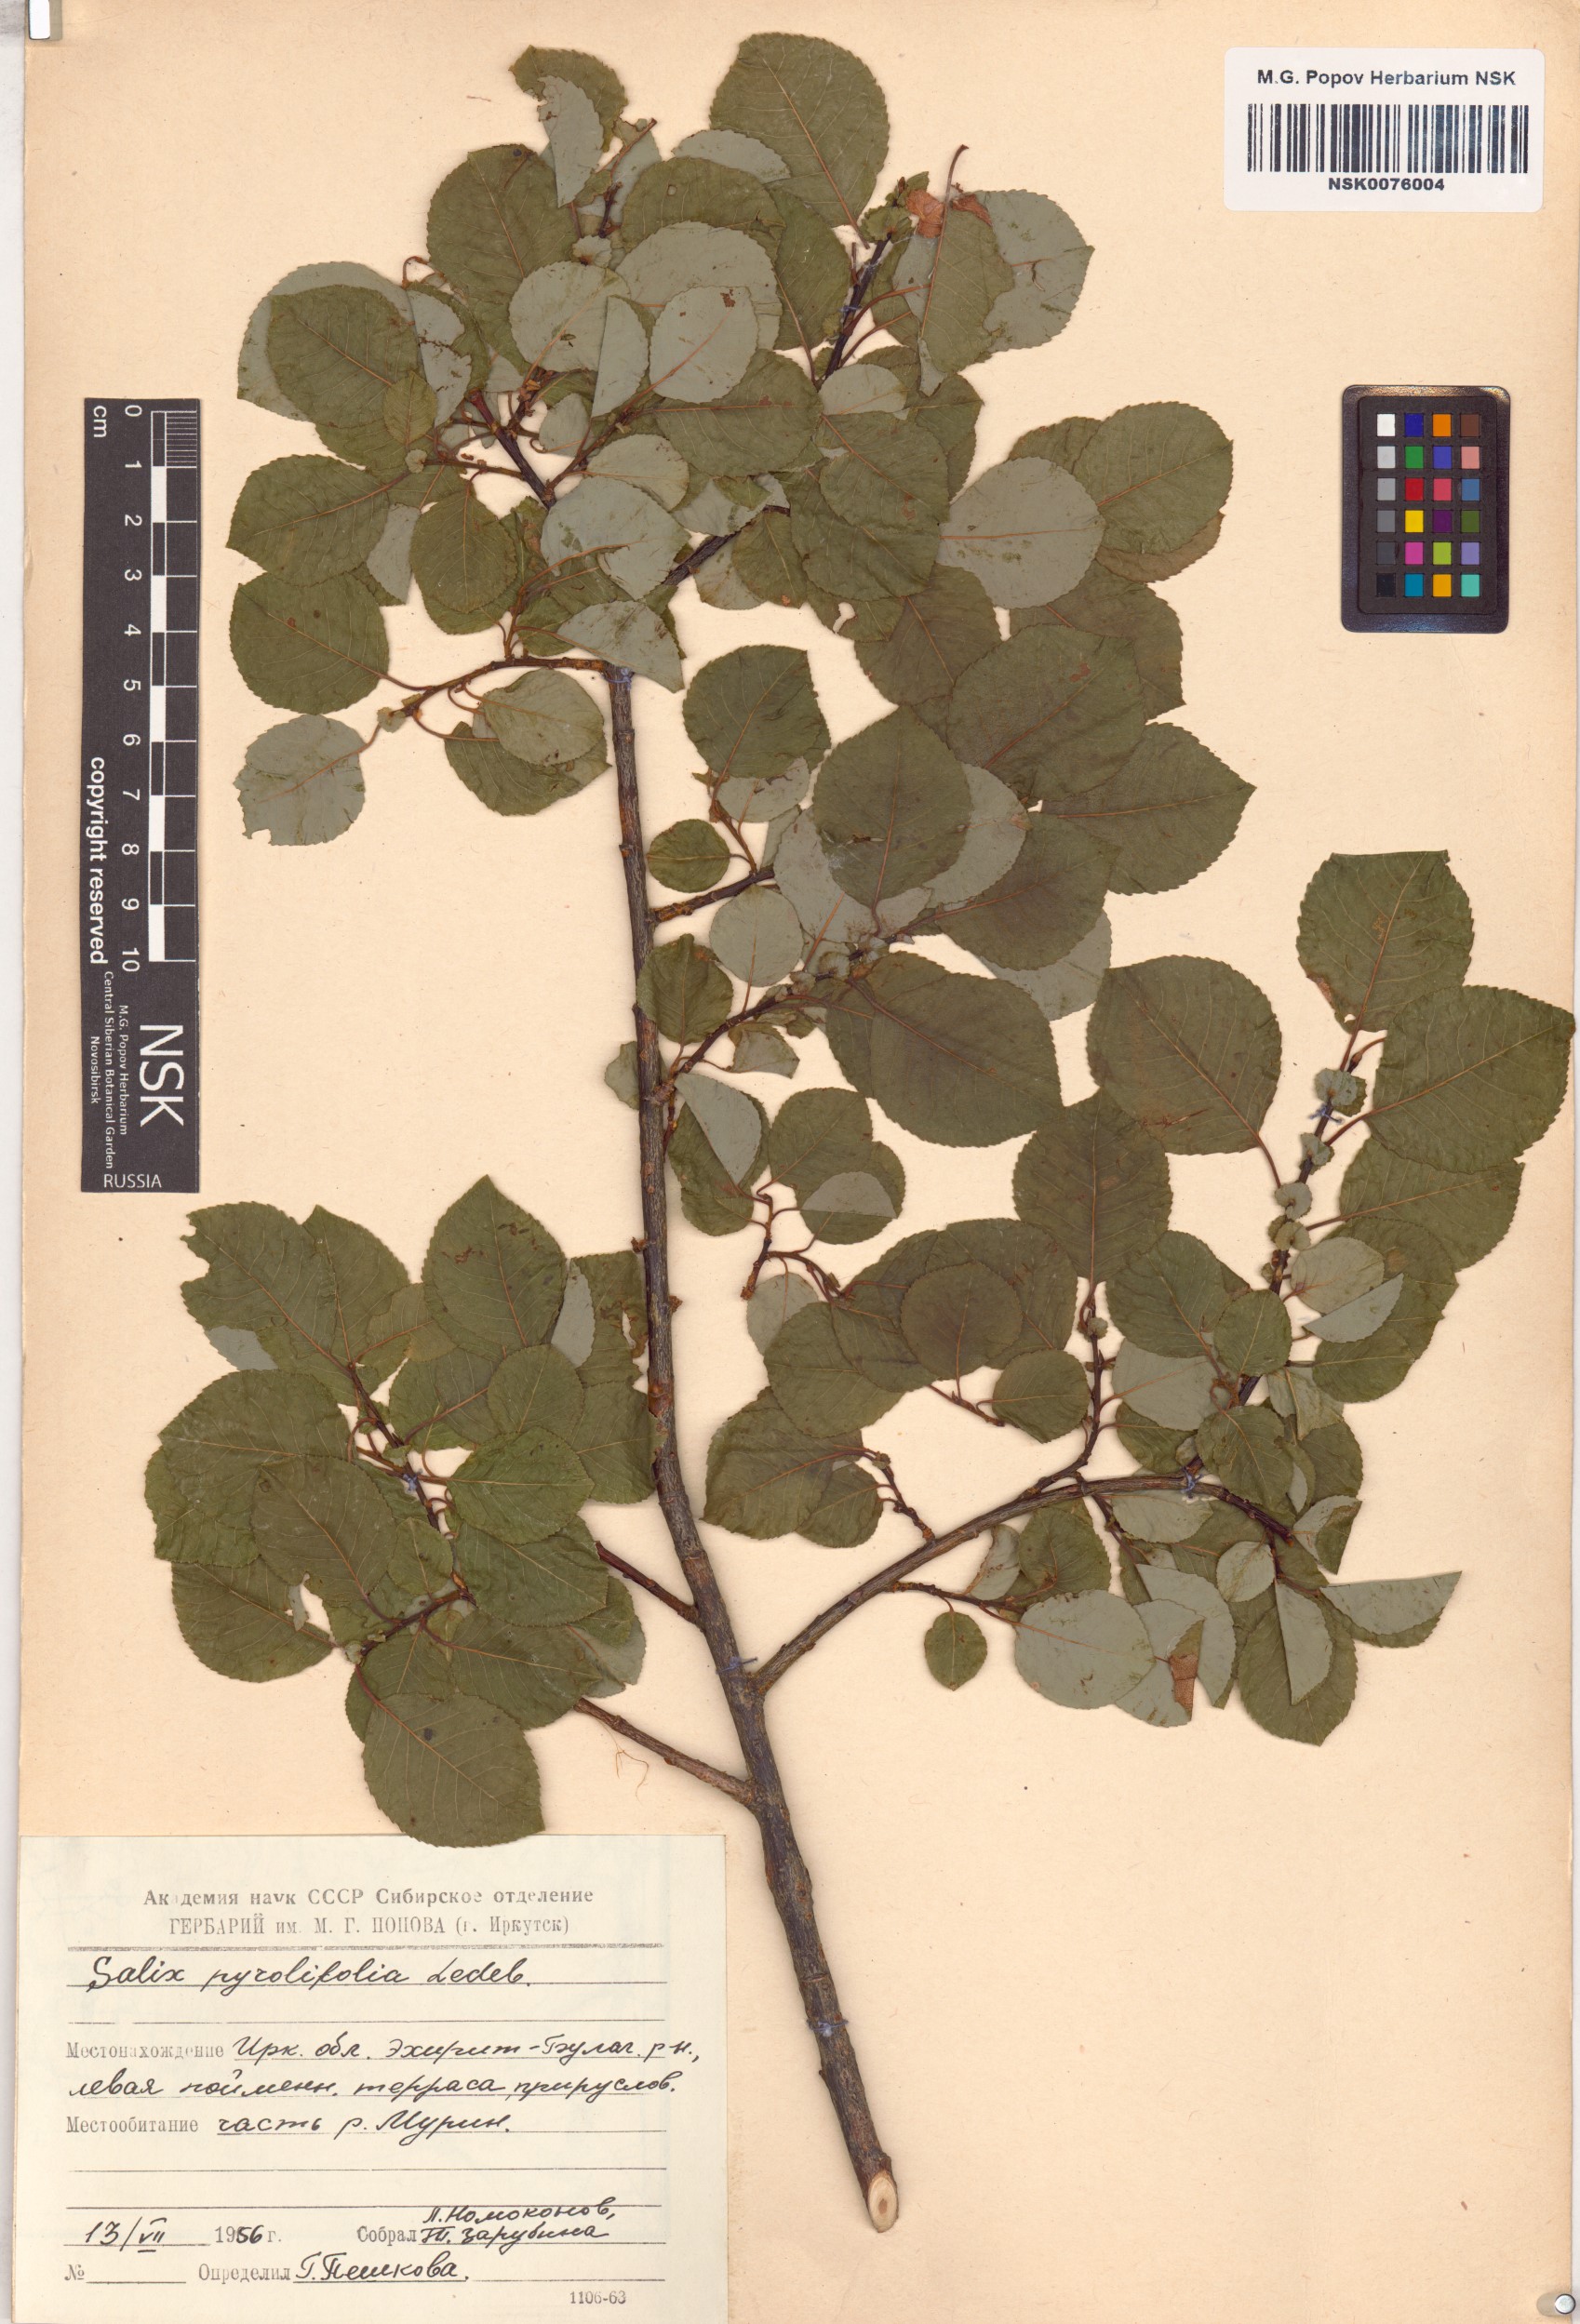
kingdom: Plantae
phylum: Tracheophyta
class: Magnoliopsida
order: Malpighiales
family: Salicaceae
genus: Salix
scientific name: Salix pyrolifolia
